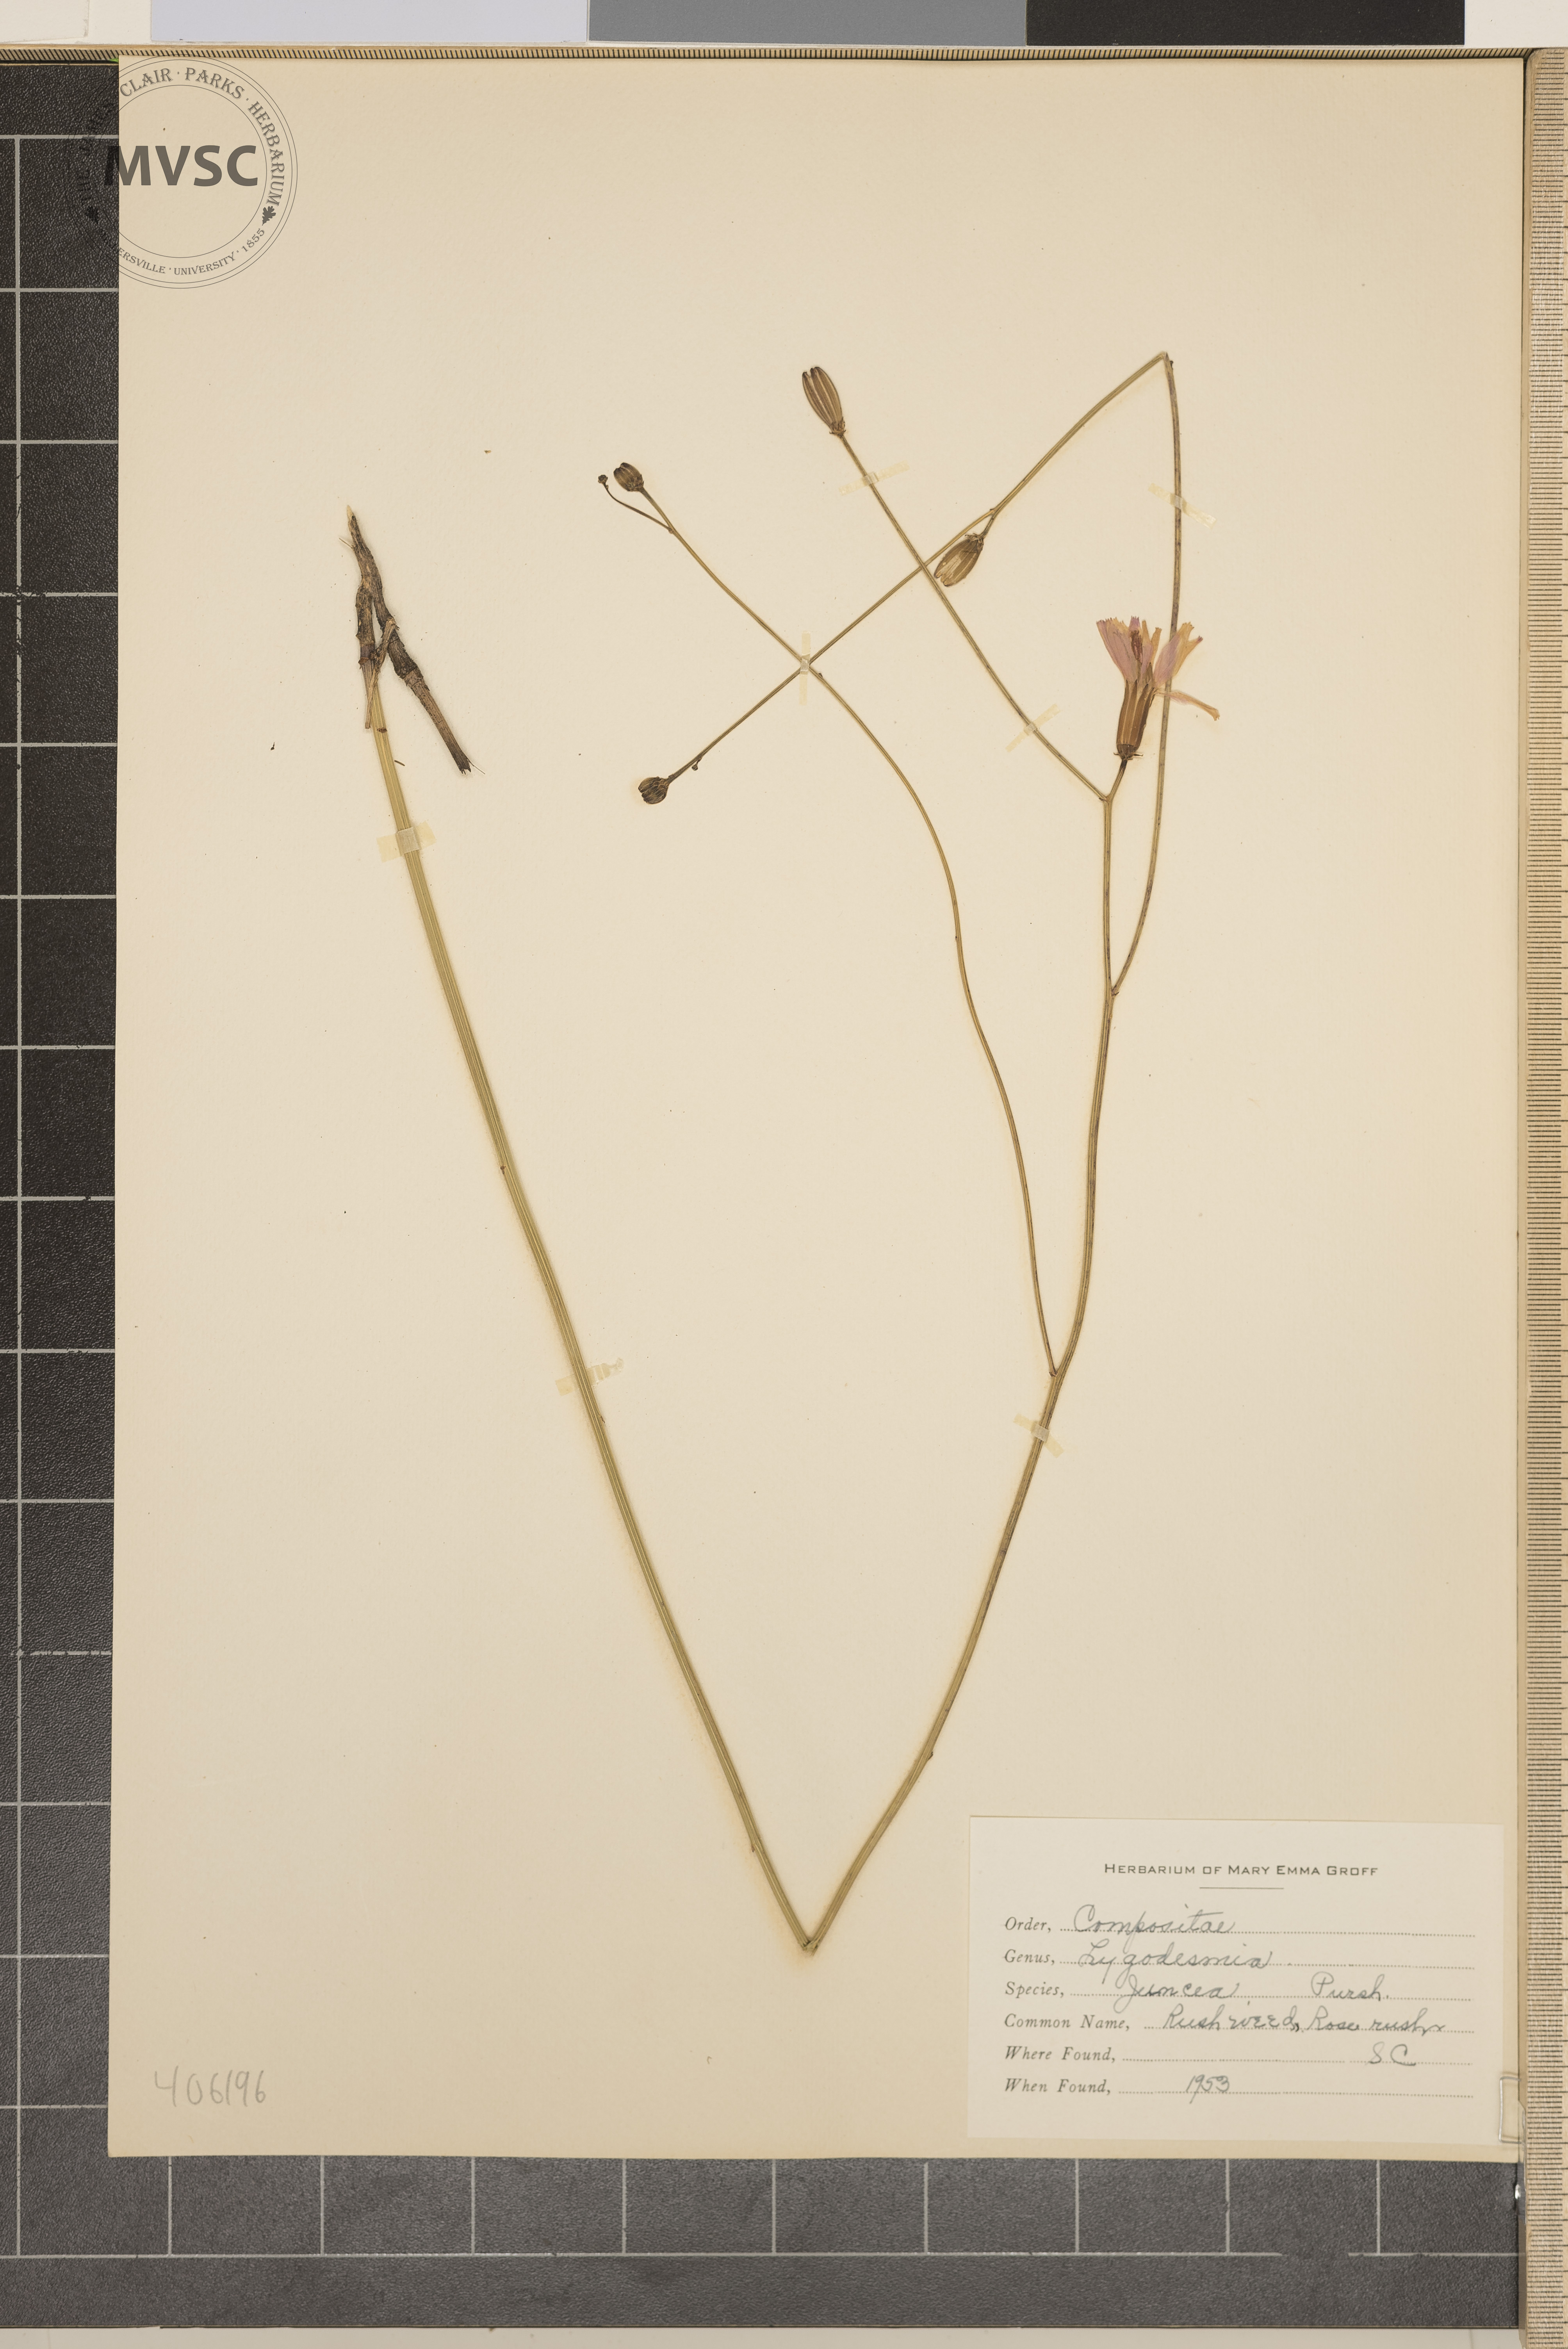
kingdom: Plantae
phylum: Tracheophyta
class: Magnoliopsida
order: Asterales
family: Asteraceae
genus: Lygodesmia
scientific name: Lygodesmia juncea
